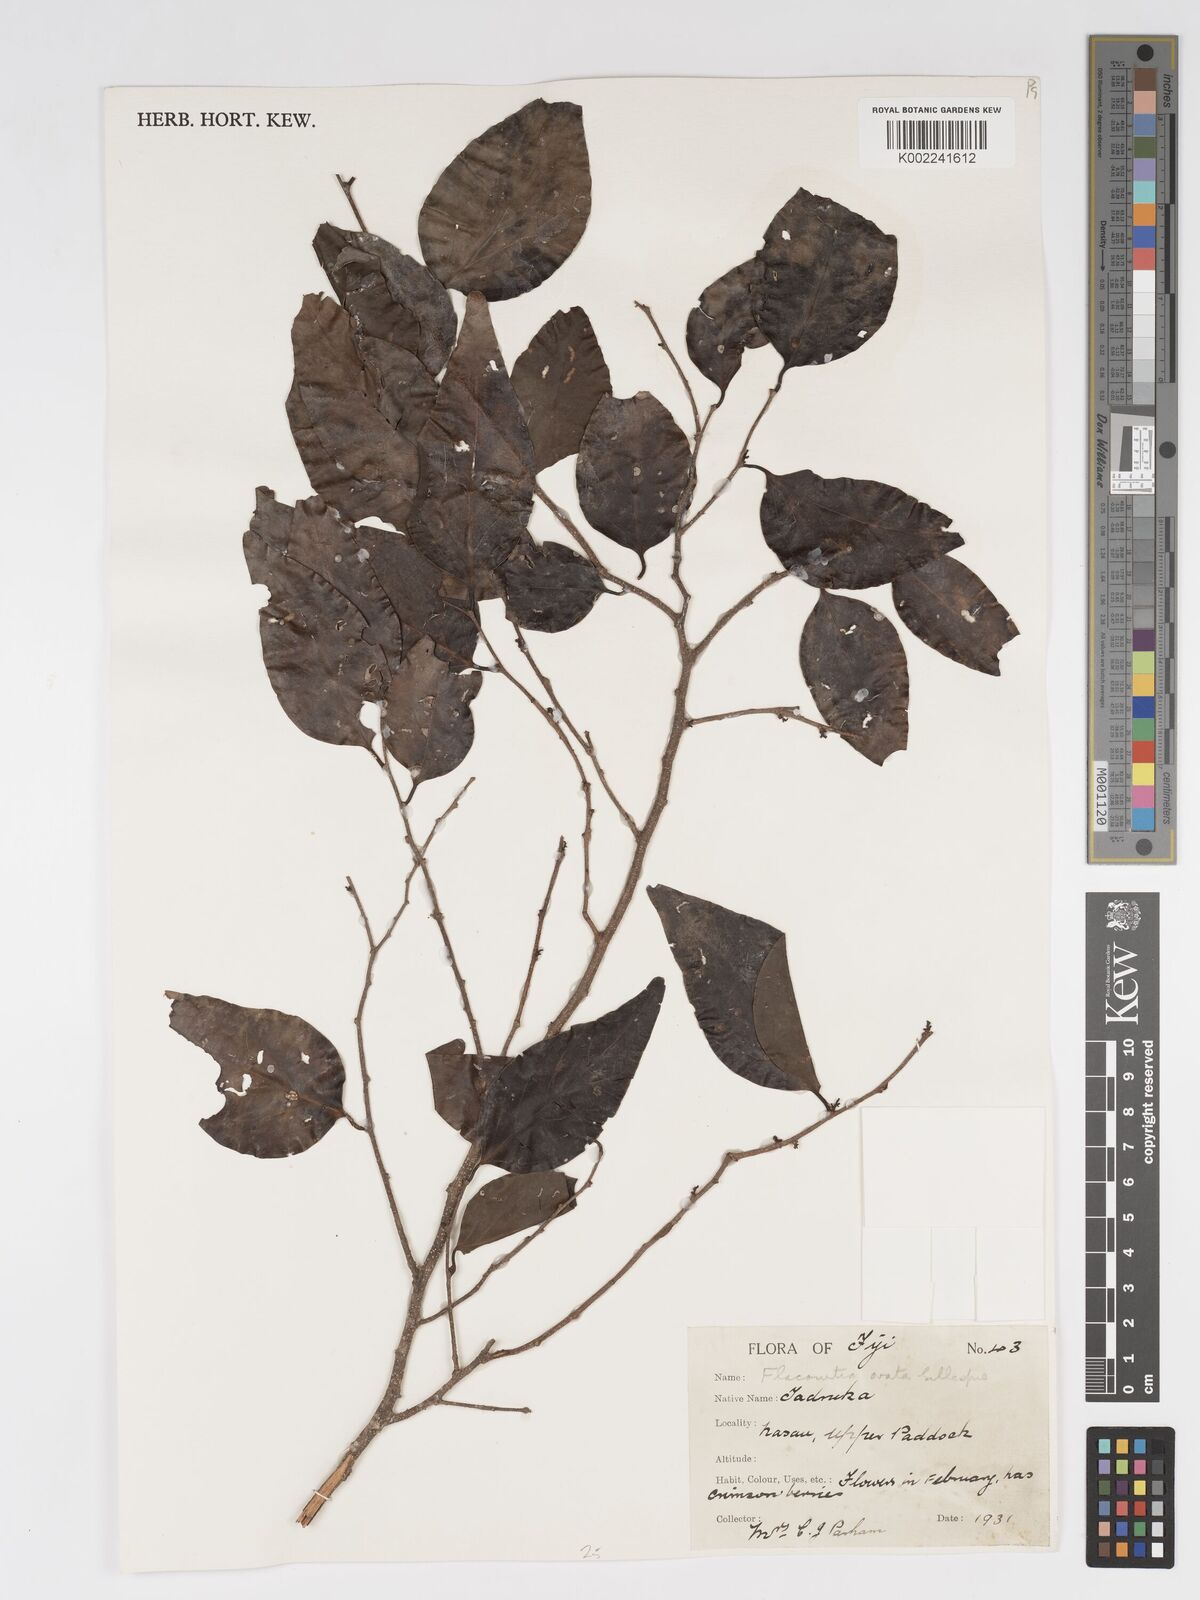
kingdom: Plantae
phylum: Tracheophyta
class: Magnoliopsida
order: Malpighiales
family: Salicaceae
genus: Flacourtia
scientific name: Flacourtia vitiensis
